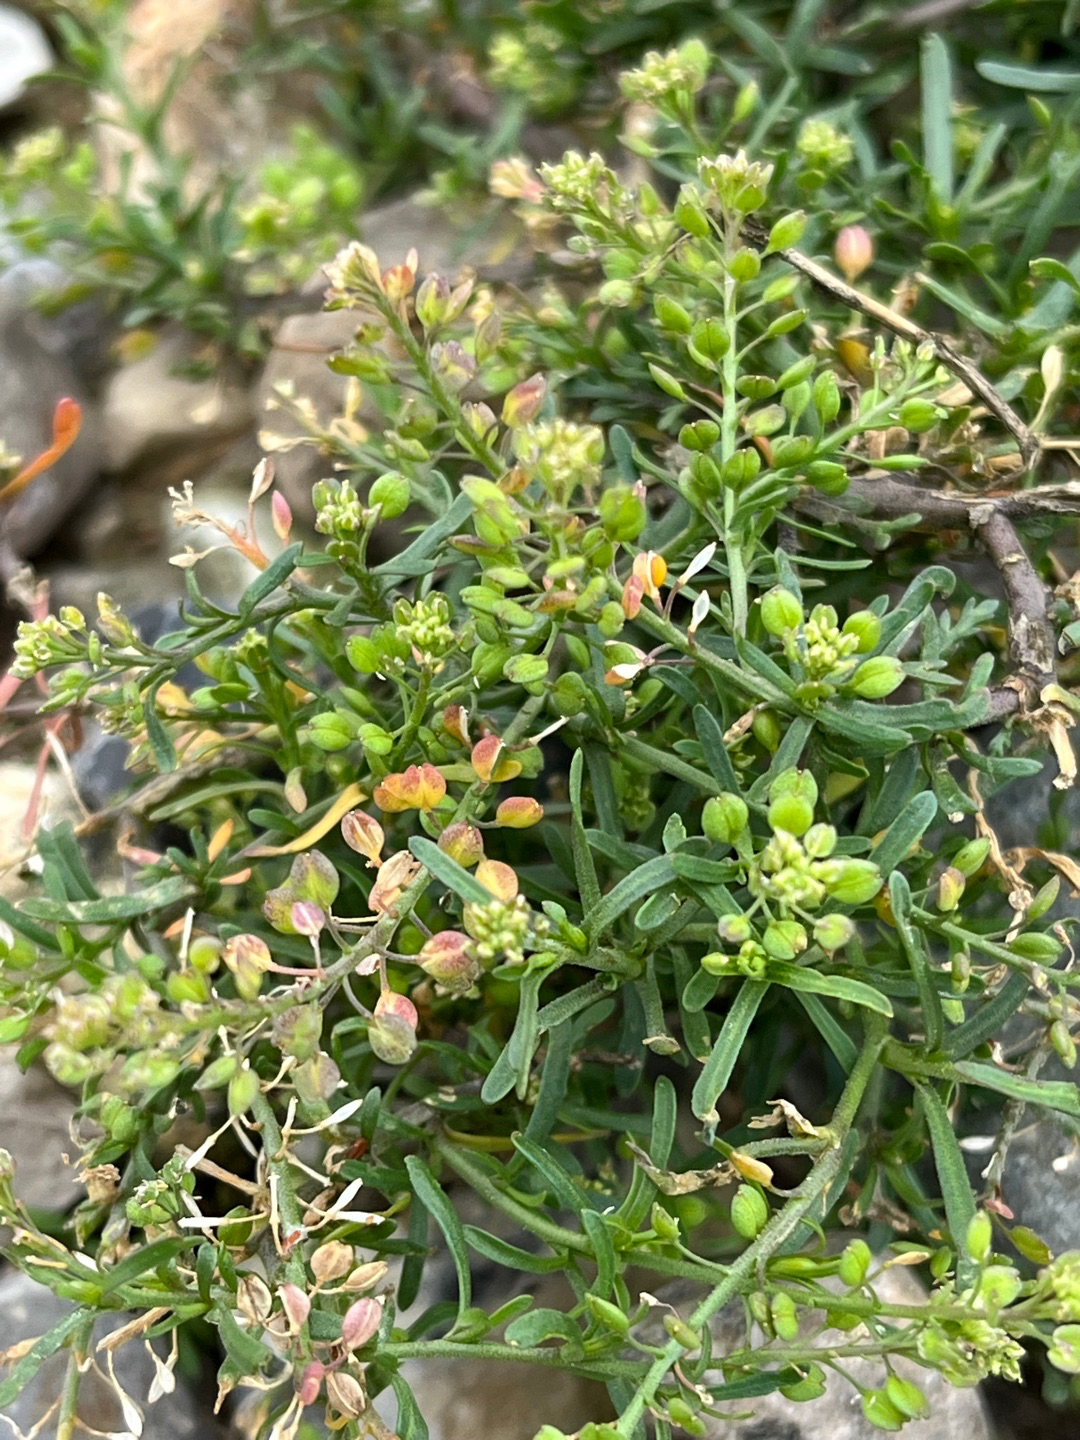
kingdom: Plantae
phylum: Tracheophyta
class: Magnoliopsida
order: Brassicales
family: Brassicaceae
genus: Lepidium
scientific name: Lepidium ruderale
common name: Stinkende karse
